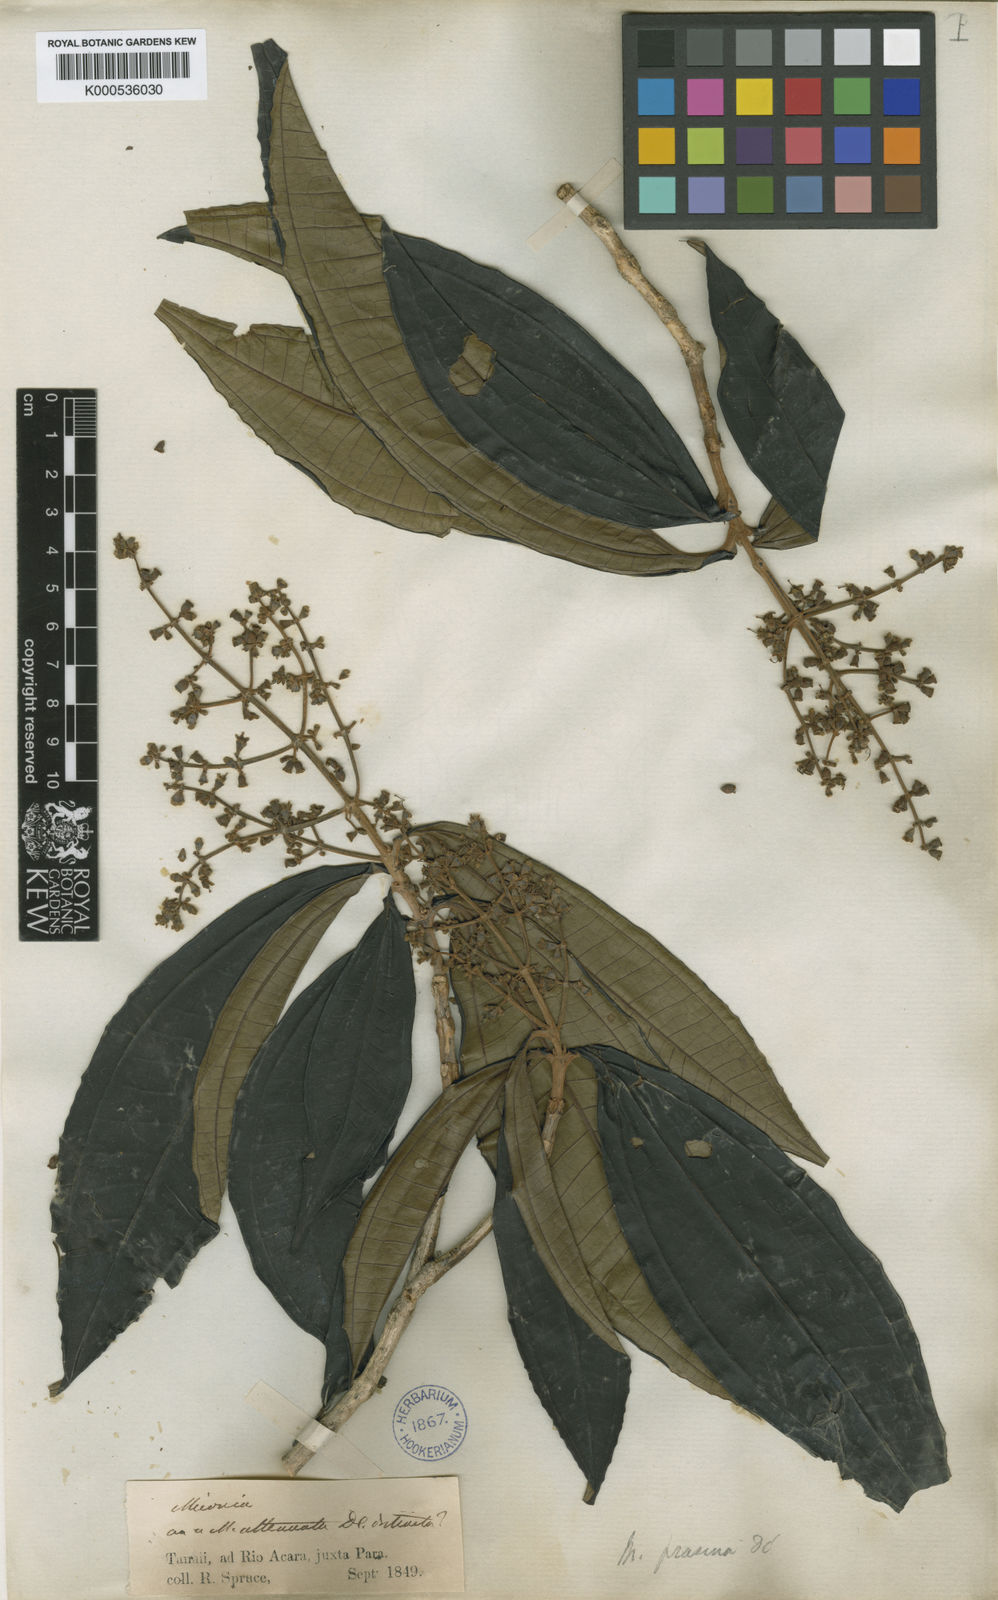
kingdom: Plantae
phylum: Tracheophyta
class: Magnoliopsida
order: Myrtales
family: Melastomataceae
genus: Miconia
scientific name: Miconia prasina
